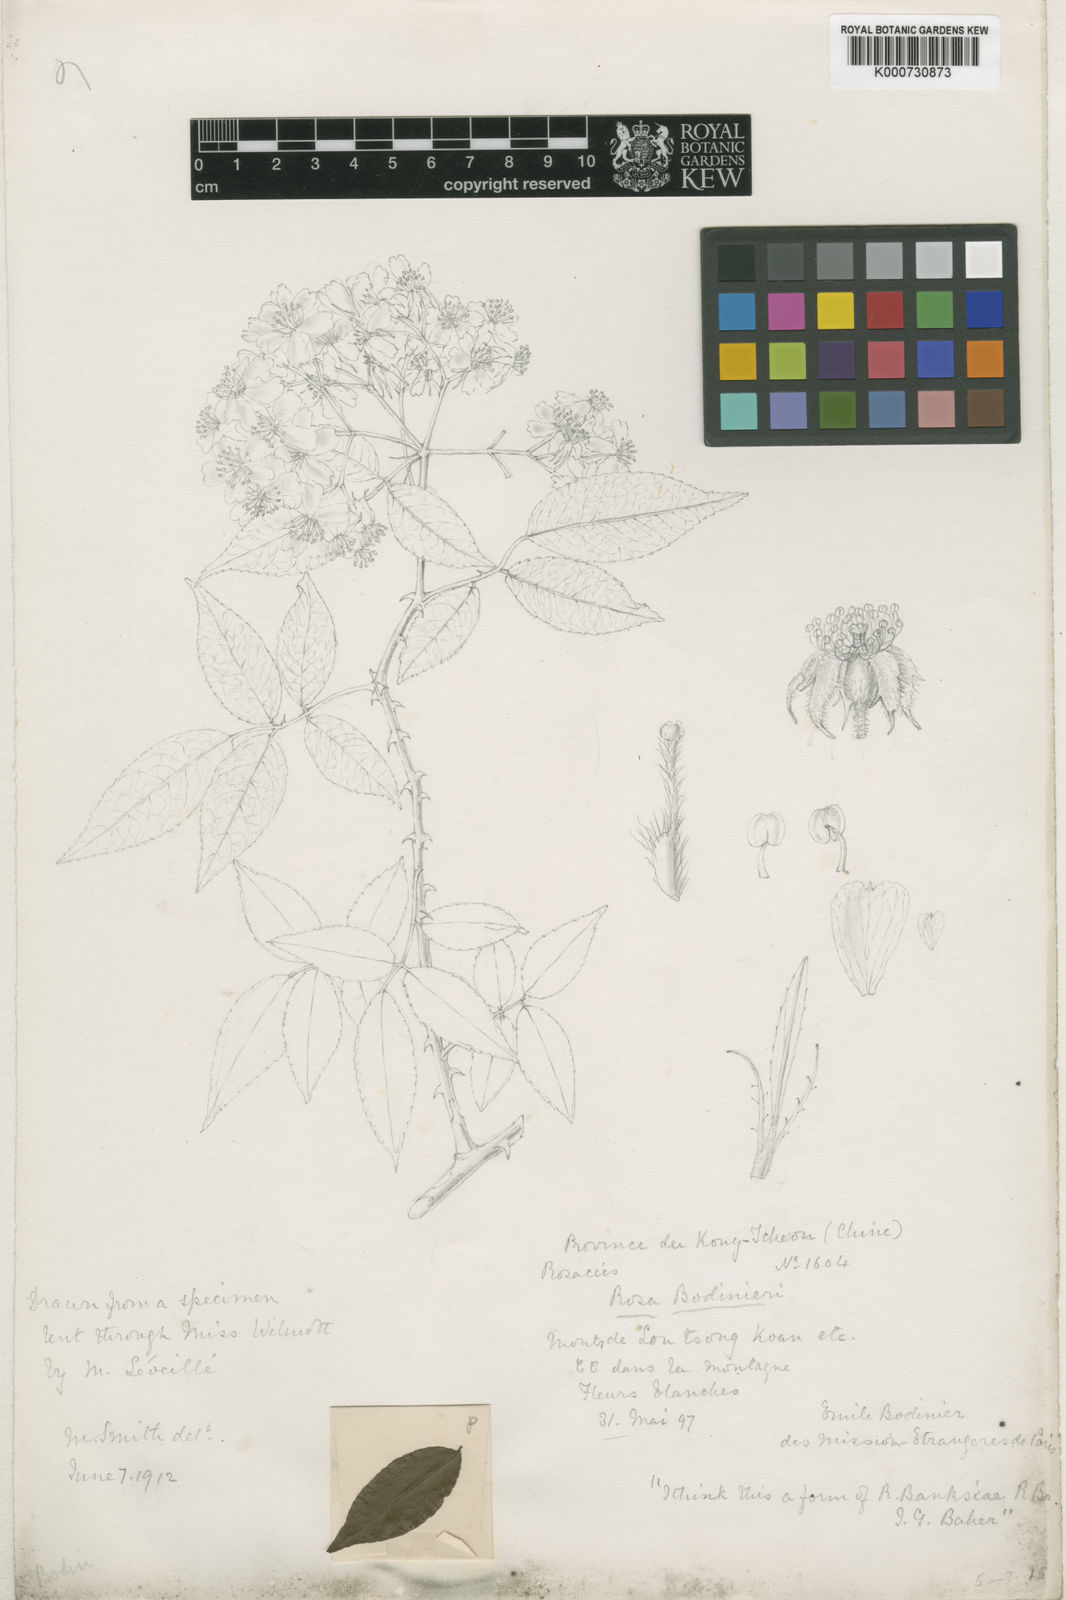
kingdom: Plantae
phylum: Tracheophyta
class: Magnoliopsida
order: Rosales
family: Rosaceae
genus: Rosa
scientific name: Rosa indica
